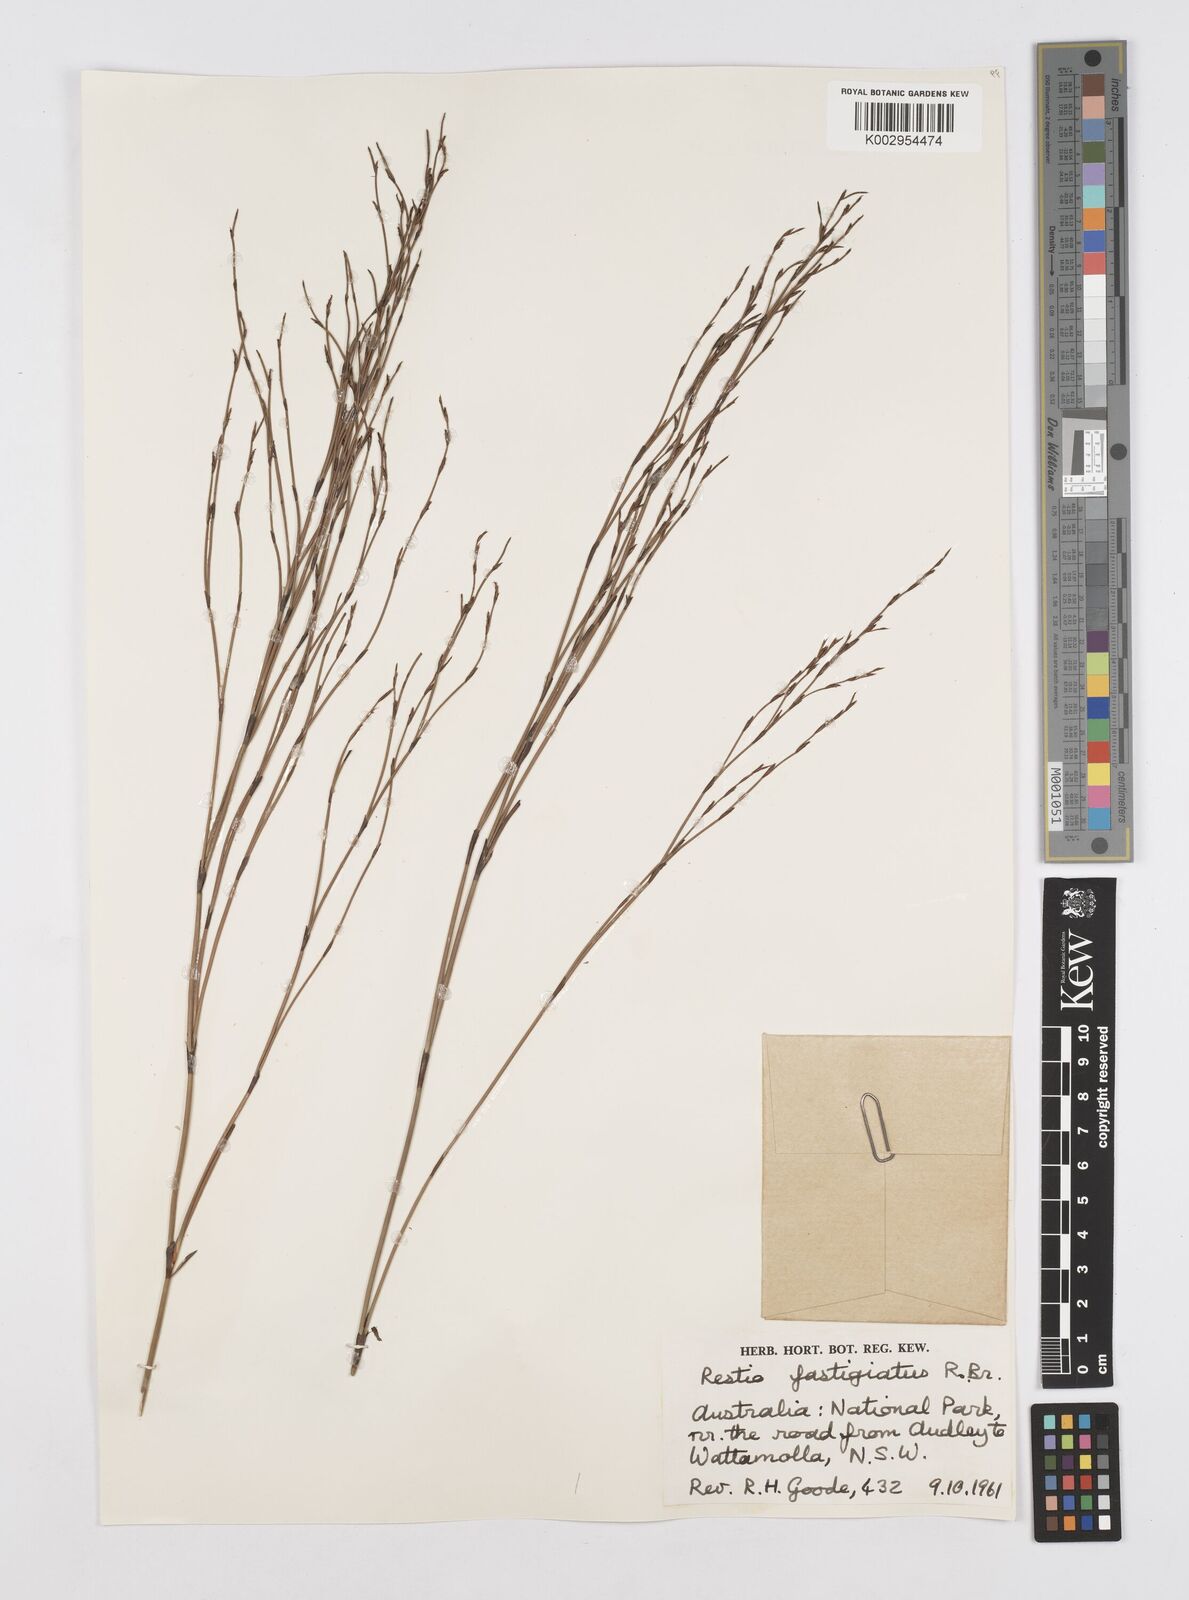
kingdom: Plantae
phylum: Tracheophyta
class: Liliopsida
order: Poales
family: Restionaceae
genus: Chordifex
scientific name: Chordifex fastigiatus
